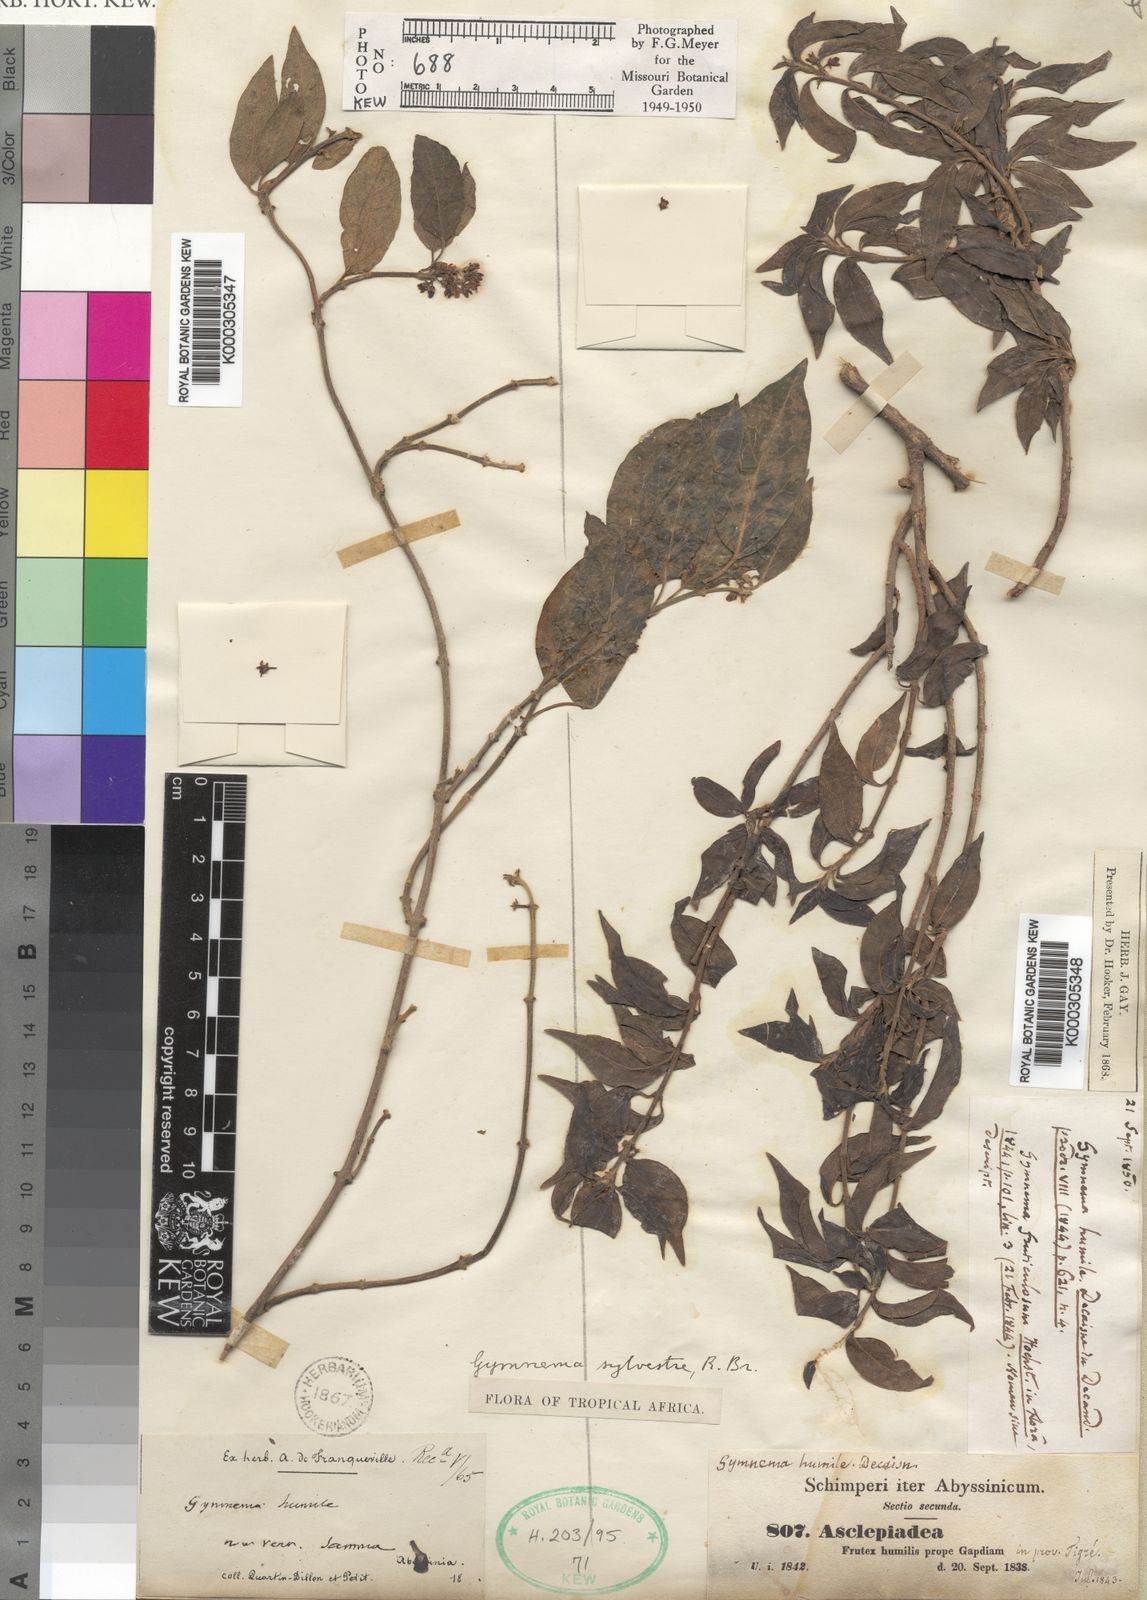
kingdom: Plantae
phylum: Tracheophyta
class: Magnoliopsida
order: Gentianales
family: Apocynaceae
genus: Gymnema
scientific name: Gymnema
